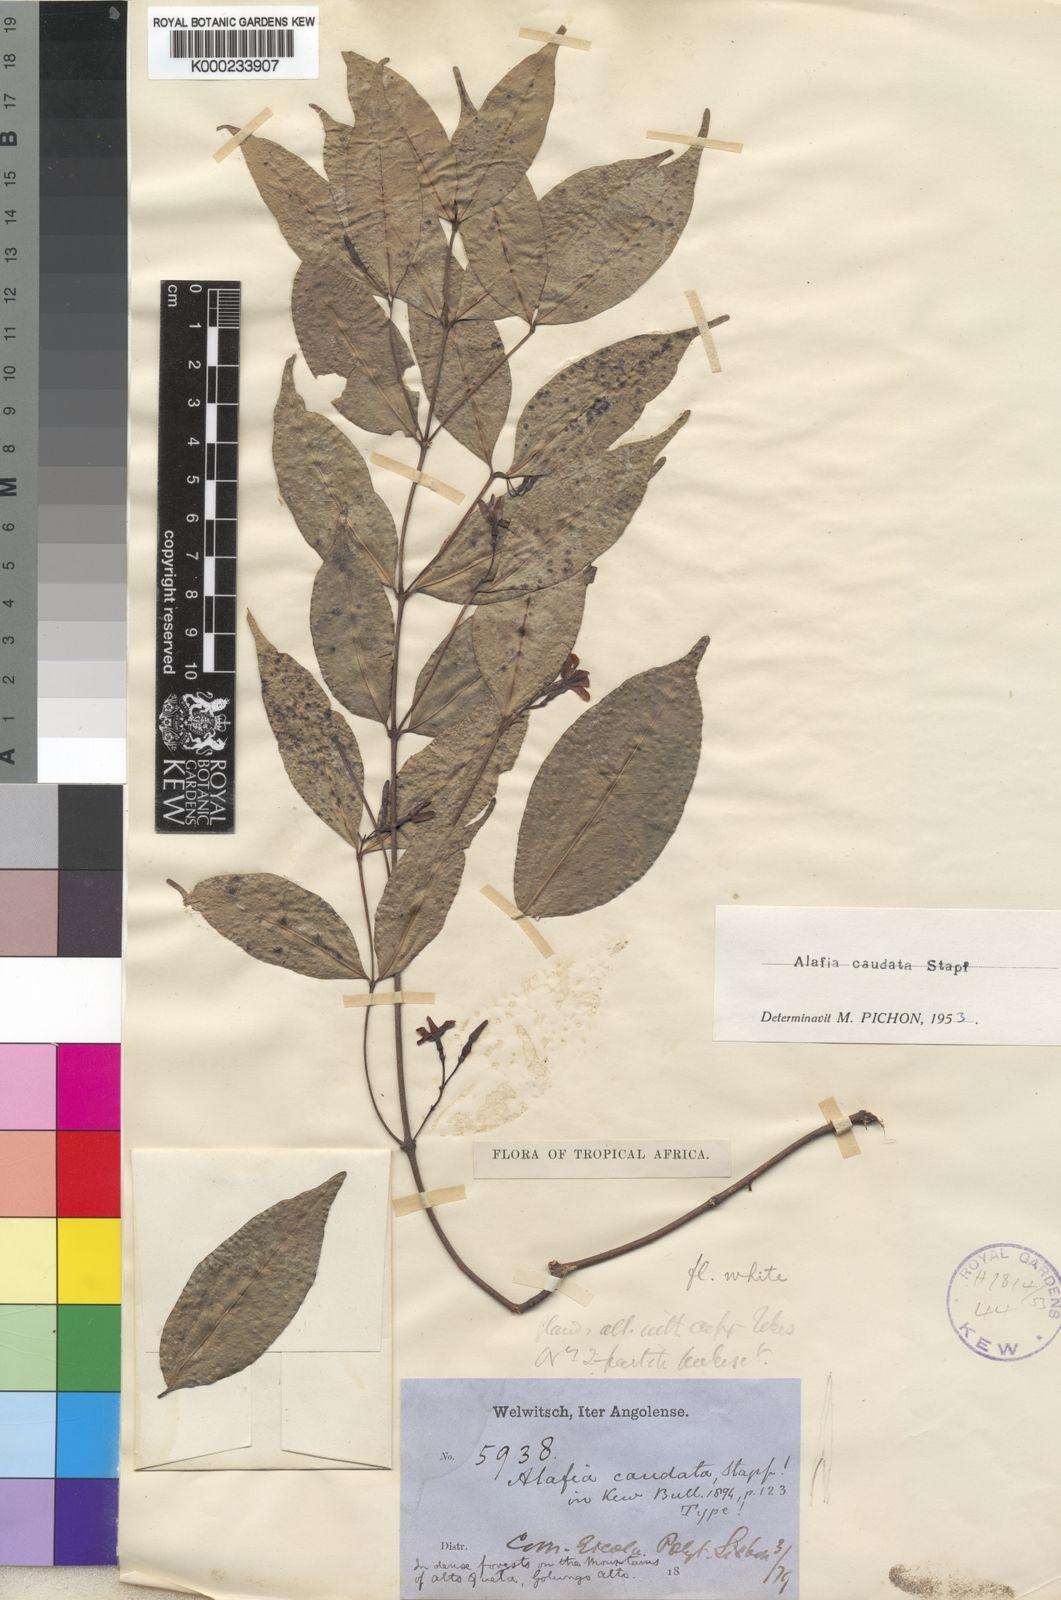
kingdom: Plantae
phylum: Tracheophyta
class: Magnoliopsida
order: Gentianales
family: Apocynaceae
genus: Alafia
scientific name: Alafia caudata
